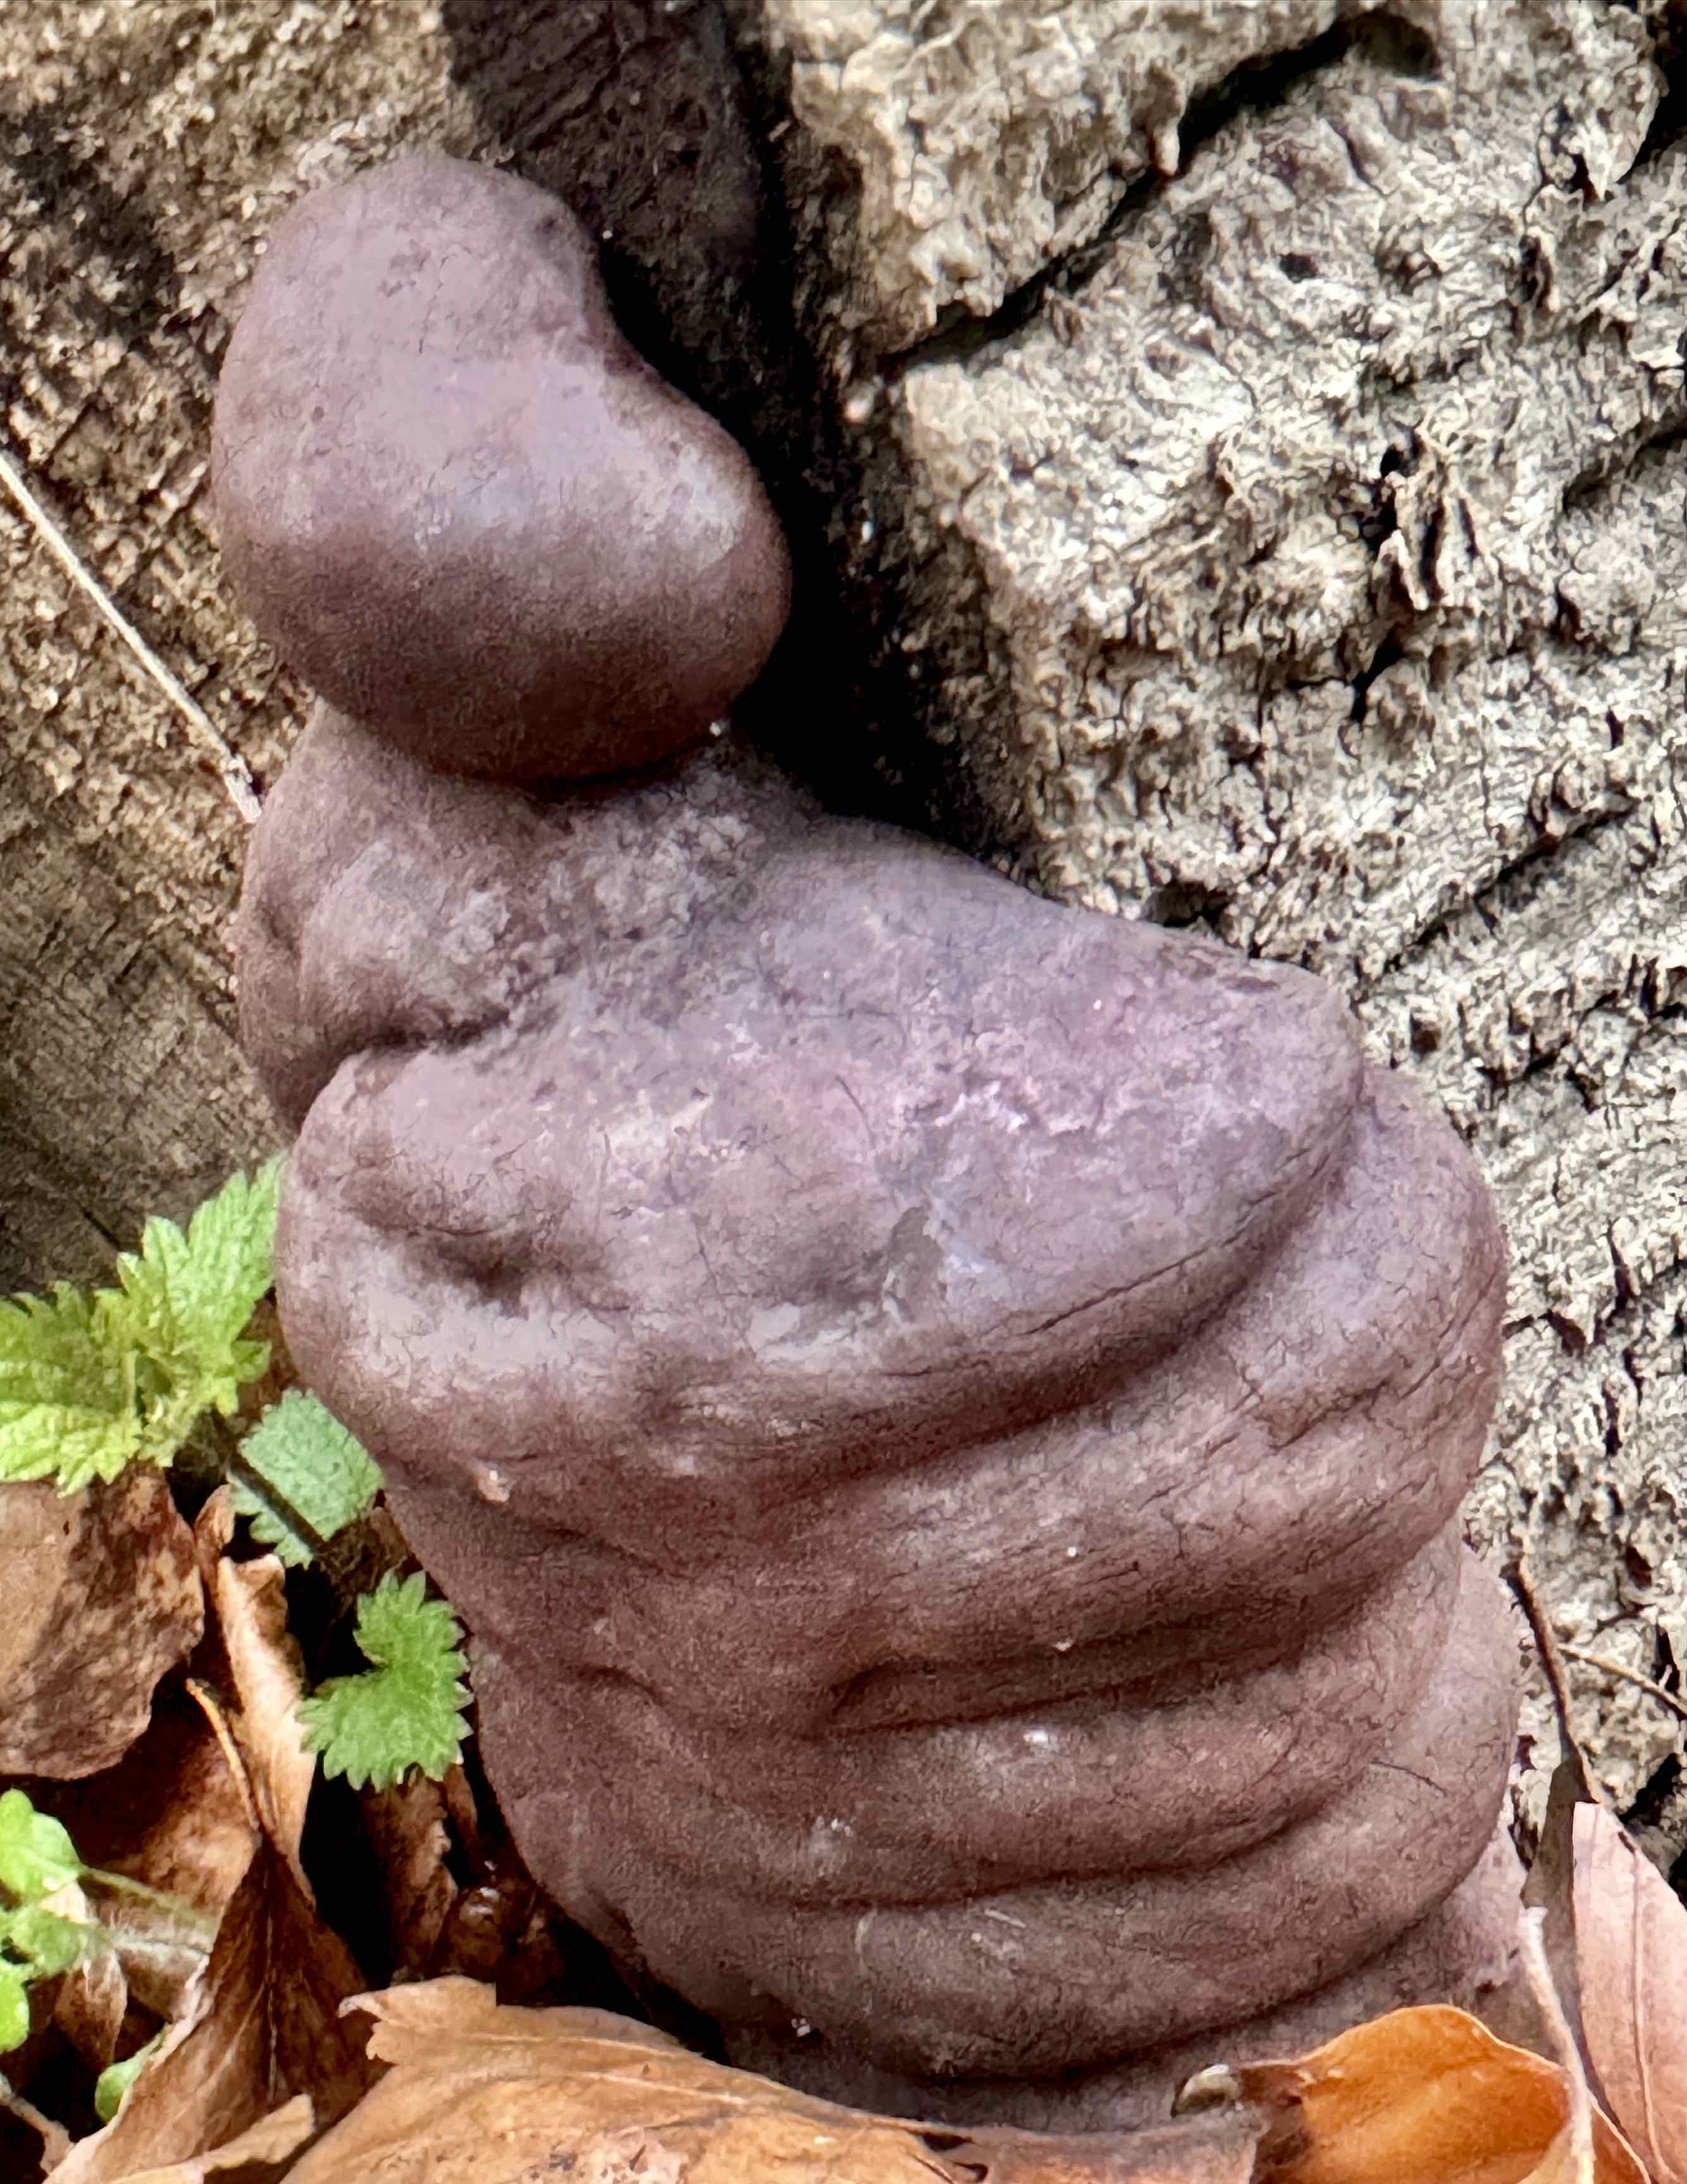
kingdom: Fungi
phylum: Ascomycota
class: Sordariomycetes
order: Xylariales
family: Hypoxylaceae
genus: Daldinia
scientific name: Daldinia concentrica
